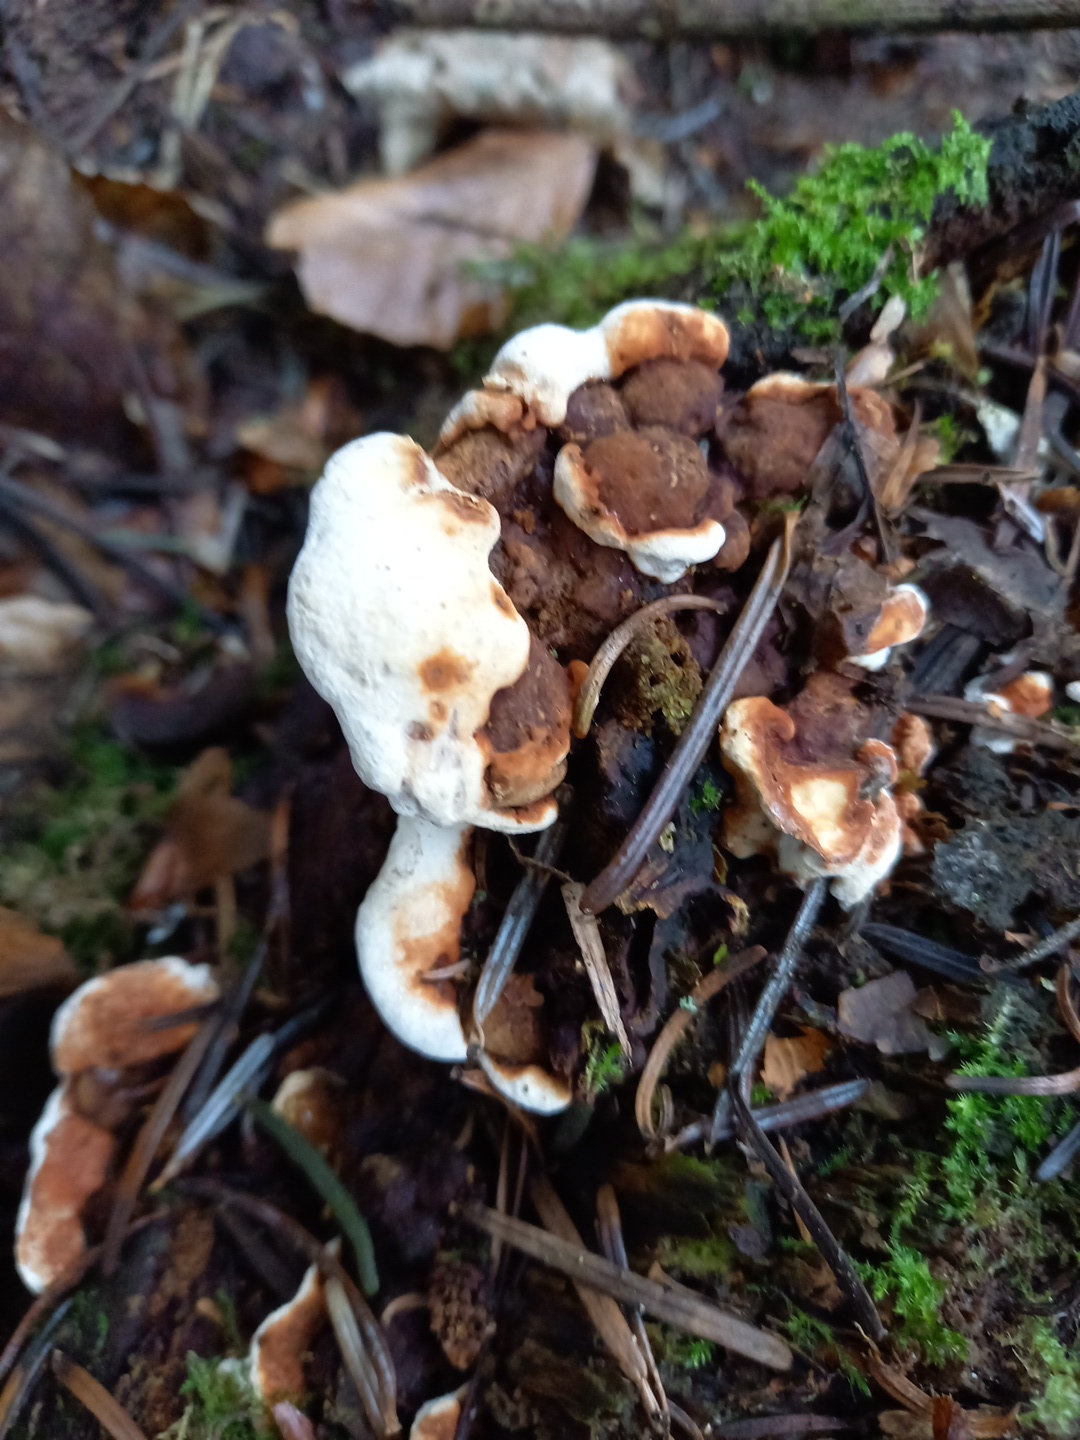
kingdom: Fungi
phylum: Basidiomycota
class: Agaricomycetes
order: Russulales
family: Bondarzewiaceae
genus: Heterobasidion
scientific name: Heterobasidion annosum
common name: almindelig rodfordærver
